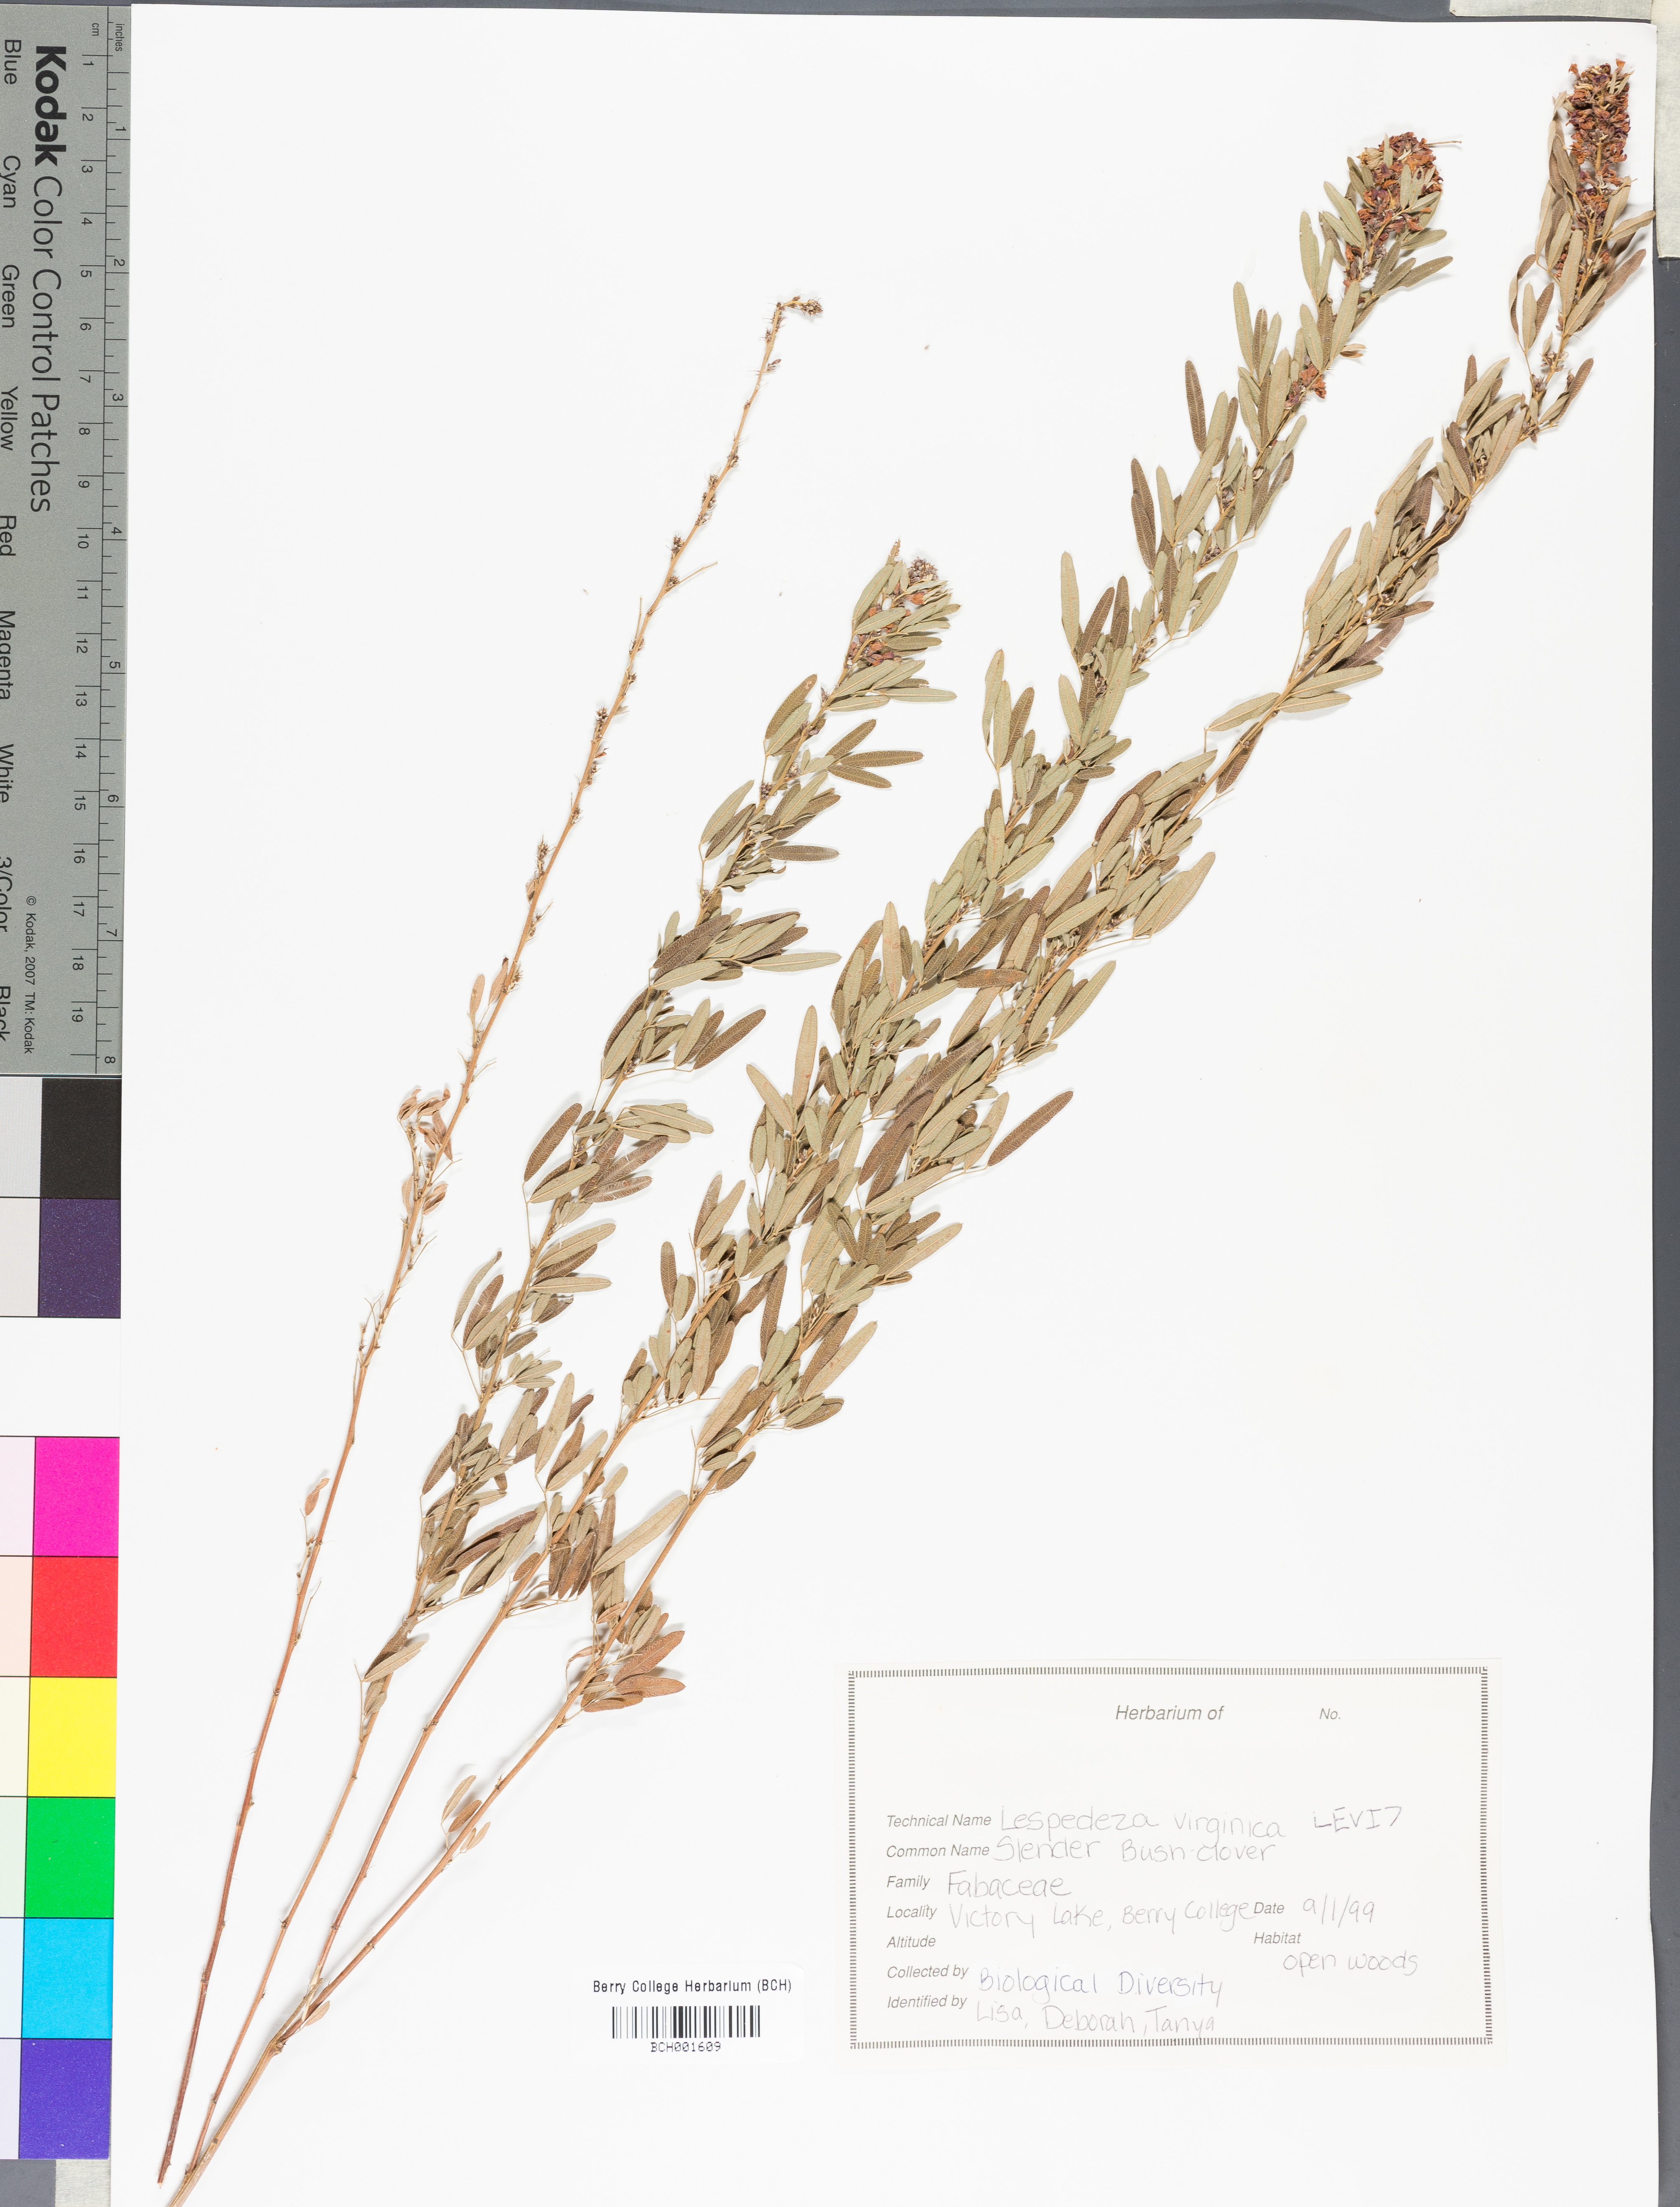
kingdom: Plantae
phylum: Tracheophyta
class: Magnoliopsida
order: Fabales
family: Fabaceae
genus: Lespedeza
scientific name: Lespedeza virginica
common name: Slender bush-clover
